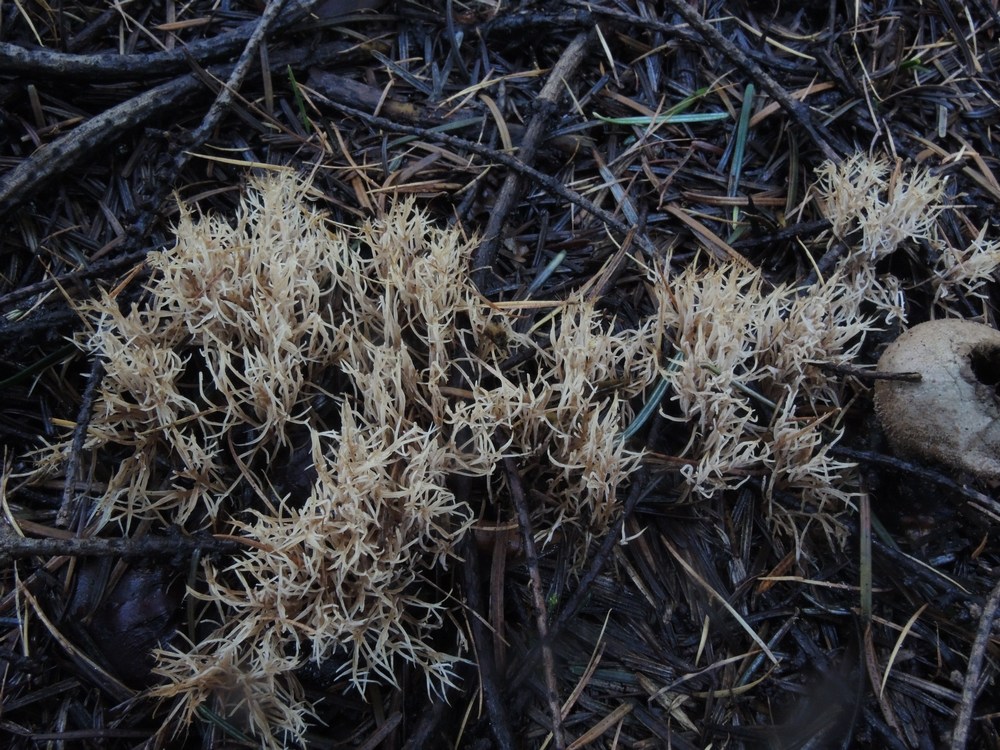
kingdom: Fungi
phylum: Basidiomycota
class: Agaricomycetes
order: Agaricales
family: Pterulaceae
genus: Pterula
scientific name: Pterula multifida
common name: busket fjerkølle
